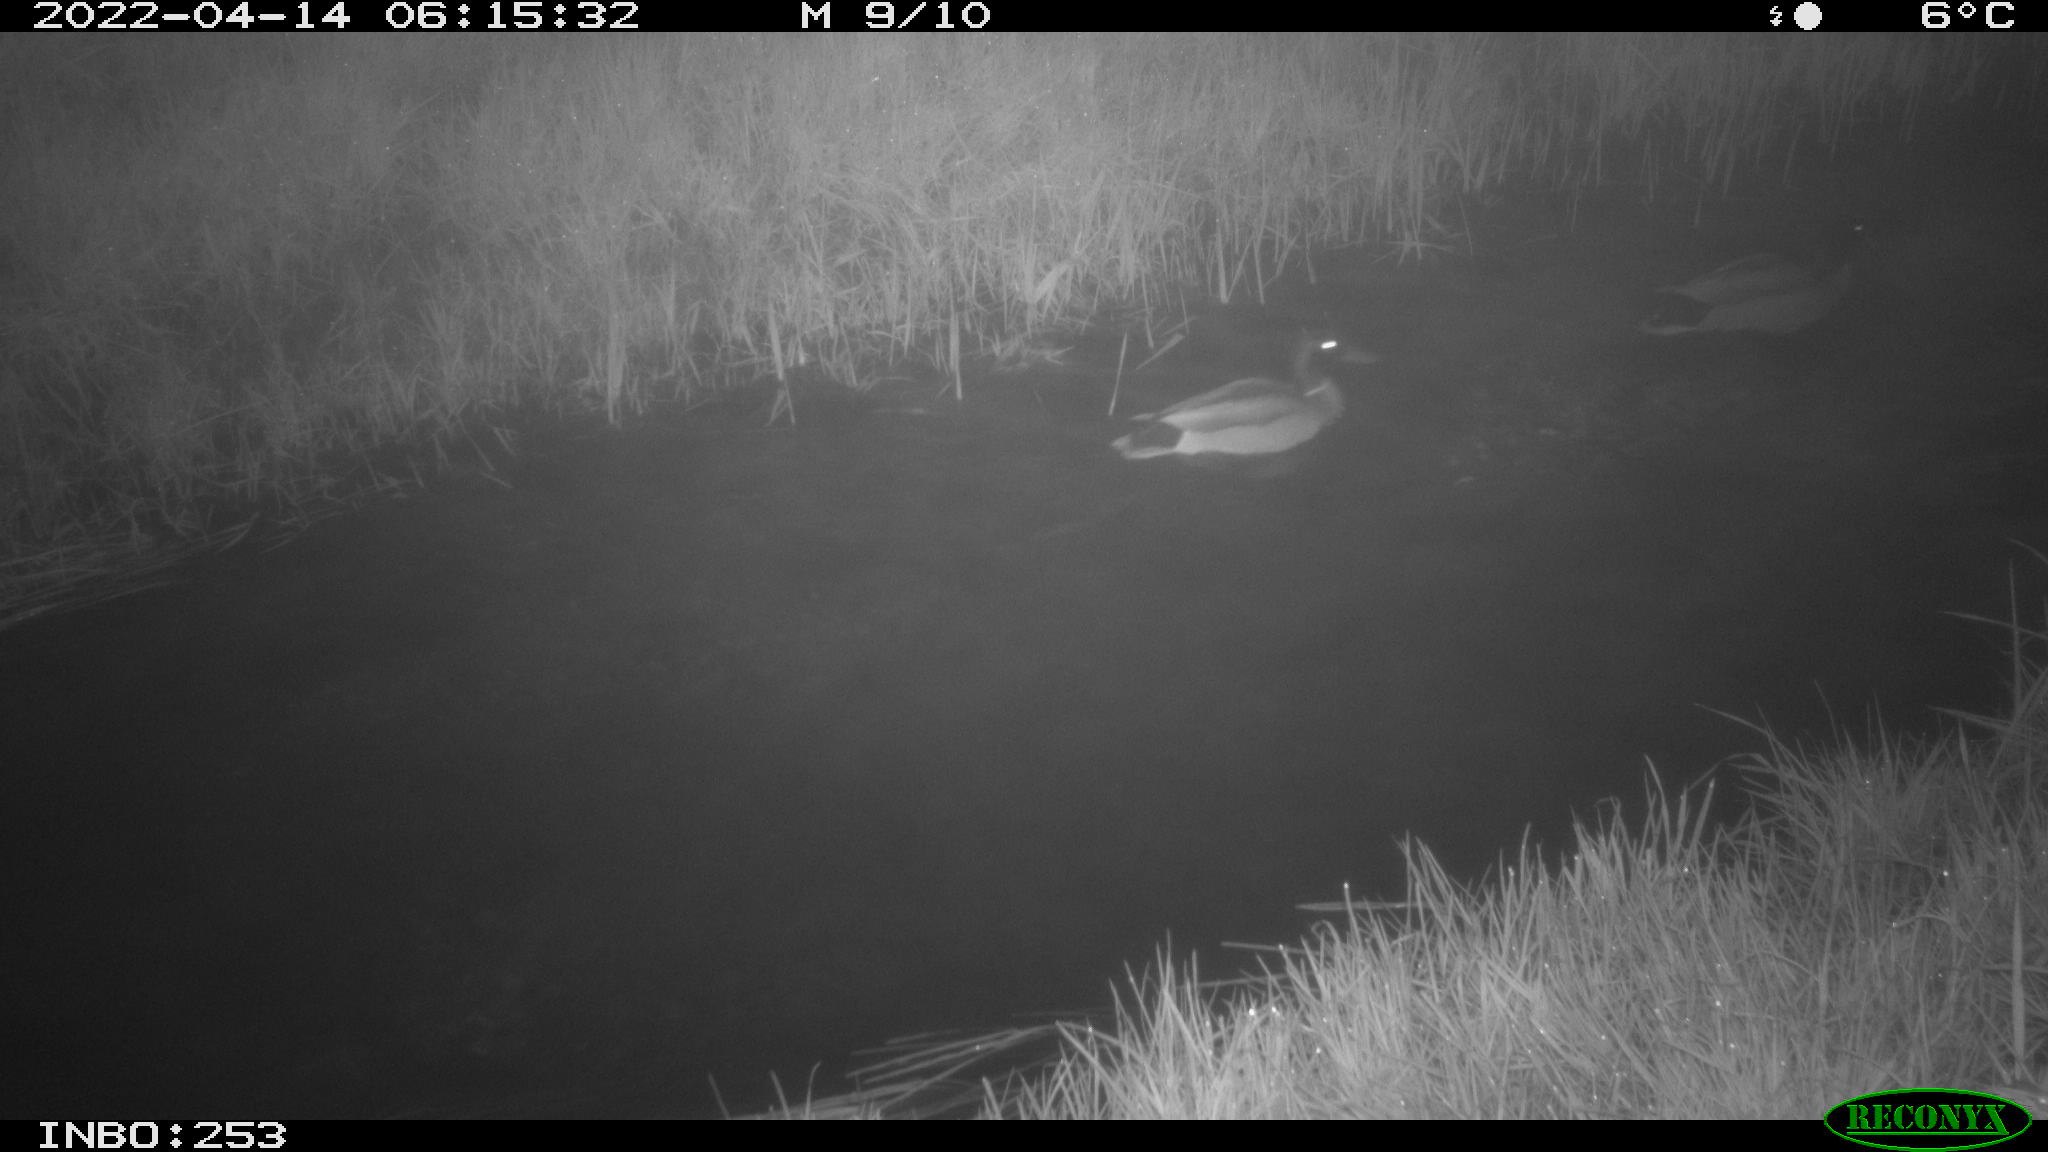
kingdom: Animalia
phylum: Chordata
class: Aves
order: Anseriformes
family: Anatidae
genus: Anas
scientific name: Anas platyrhynchos
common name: Mallard
